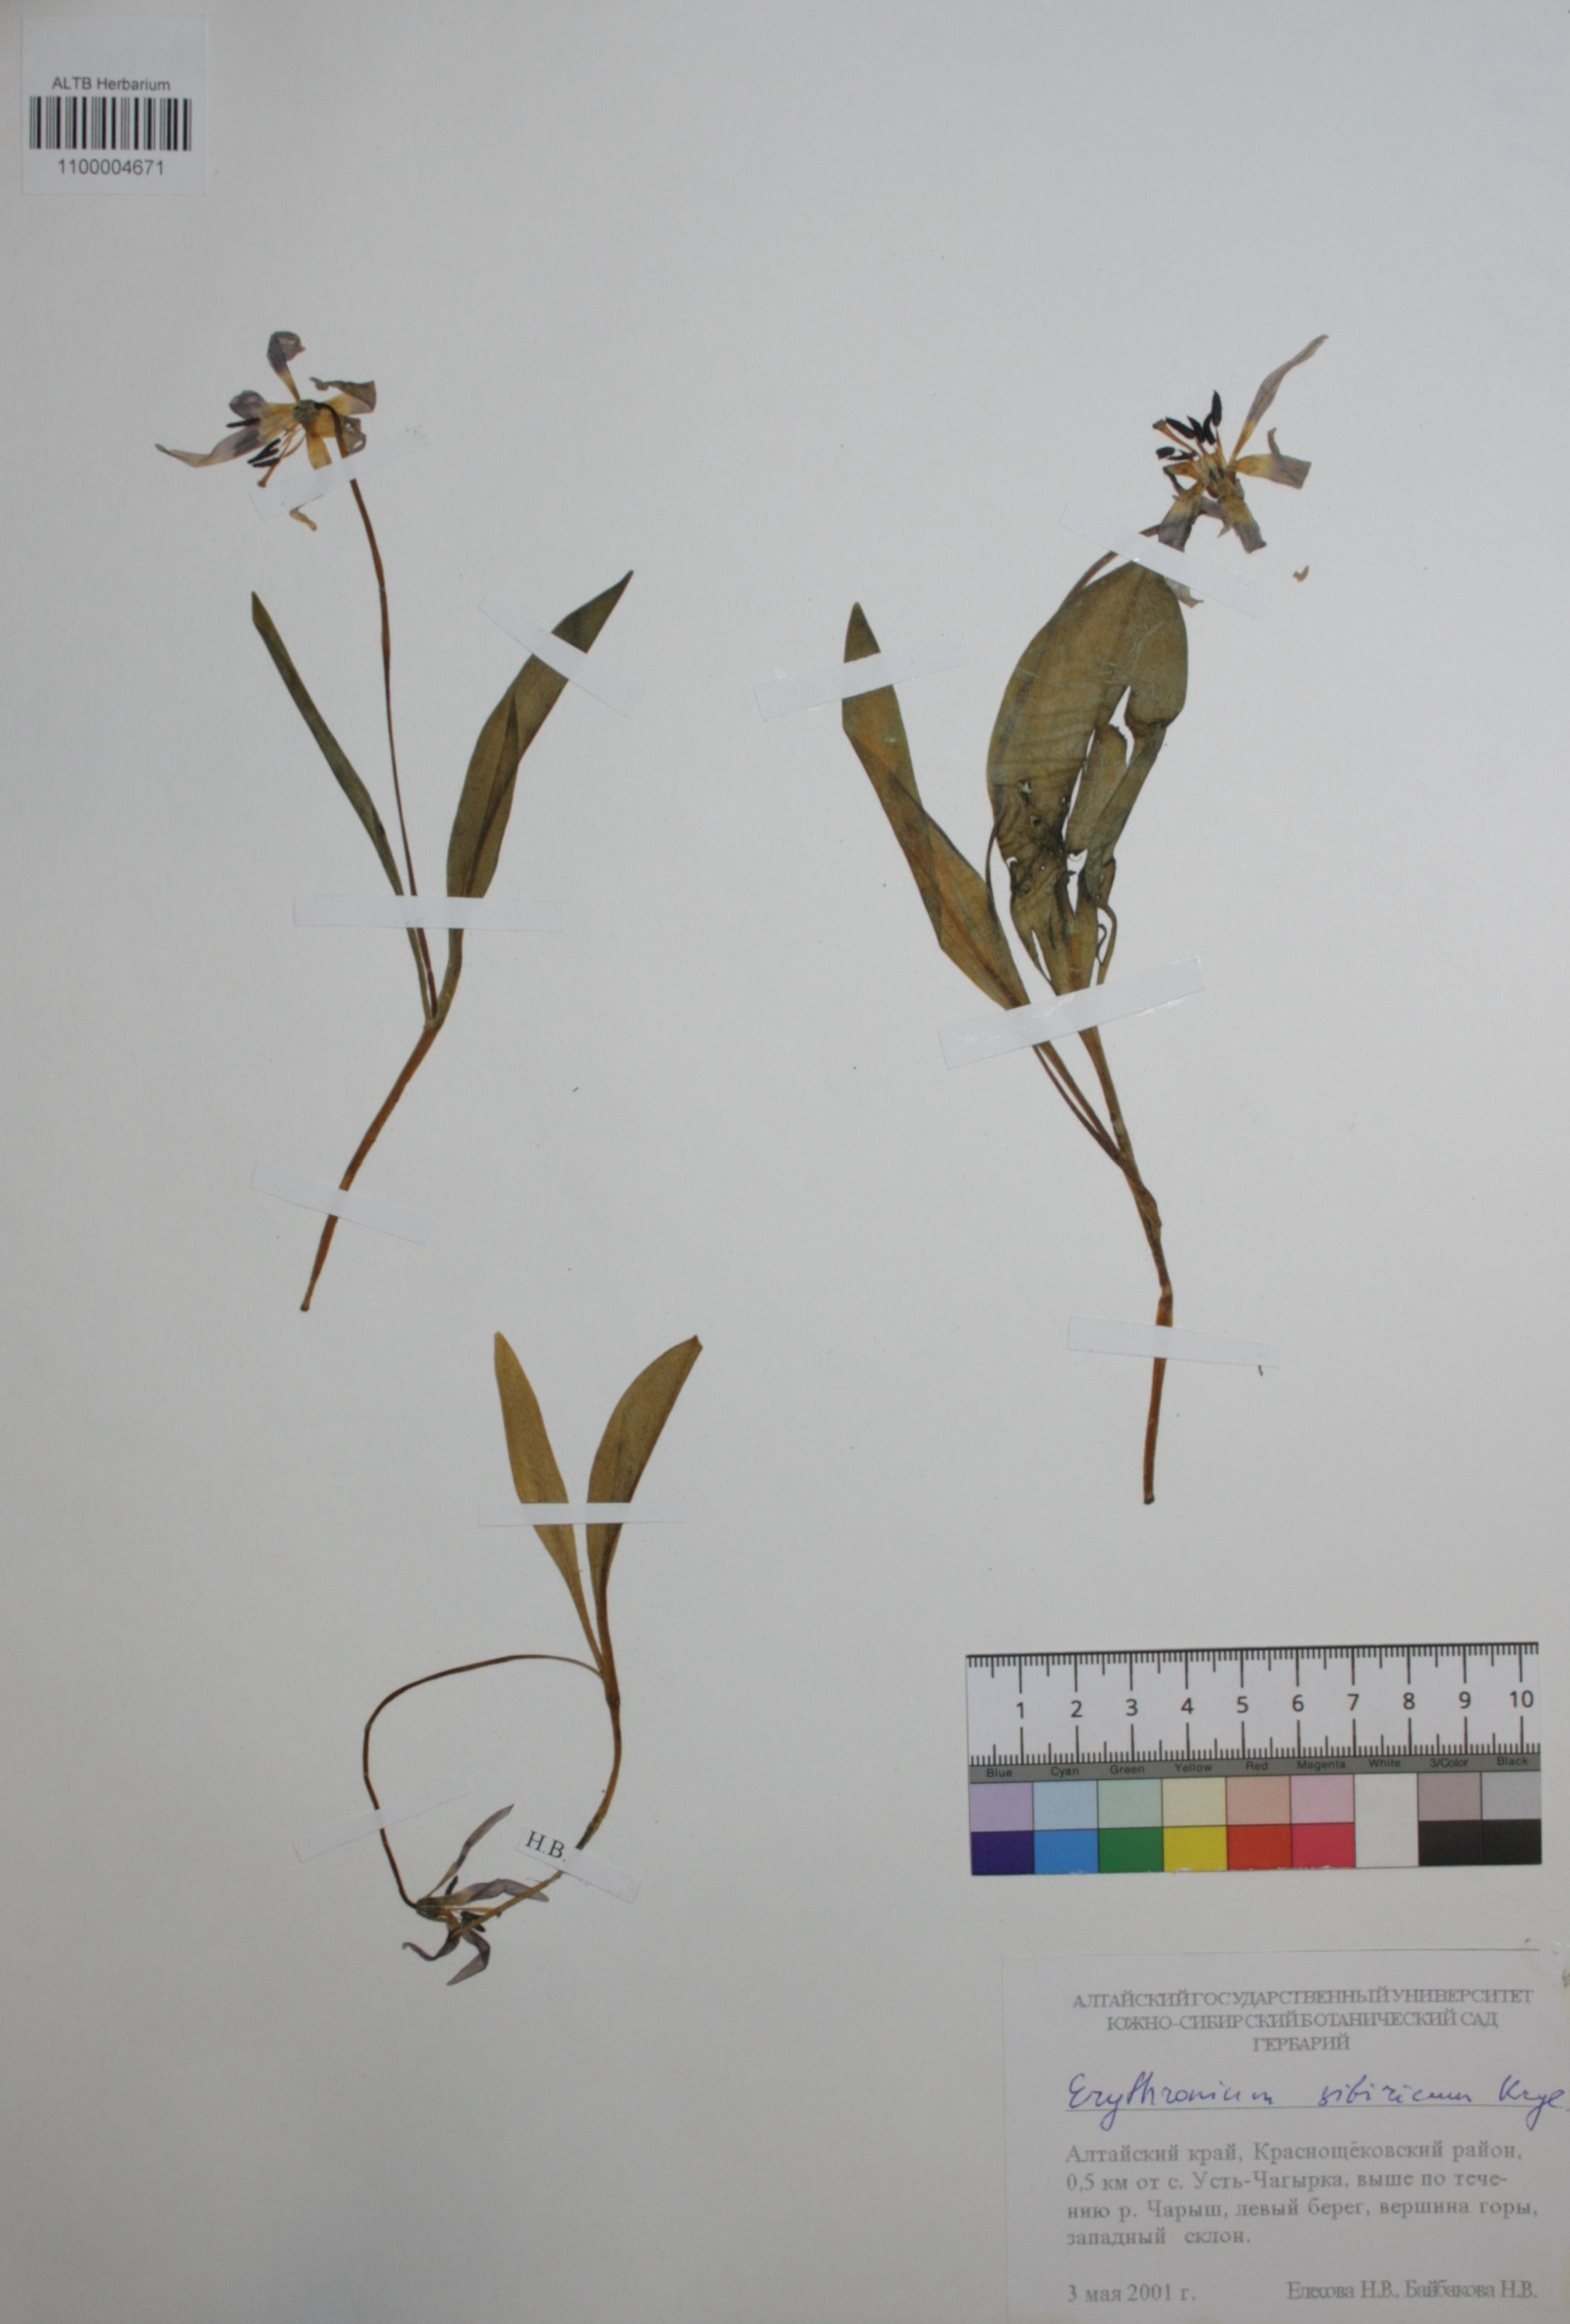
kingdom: Plantae
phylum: Tracheophyta
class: Liliopsida
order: Liliales
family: Liliaceae
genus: Erythronium
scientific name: Erythronium sibiricum
